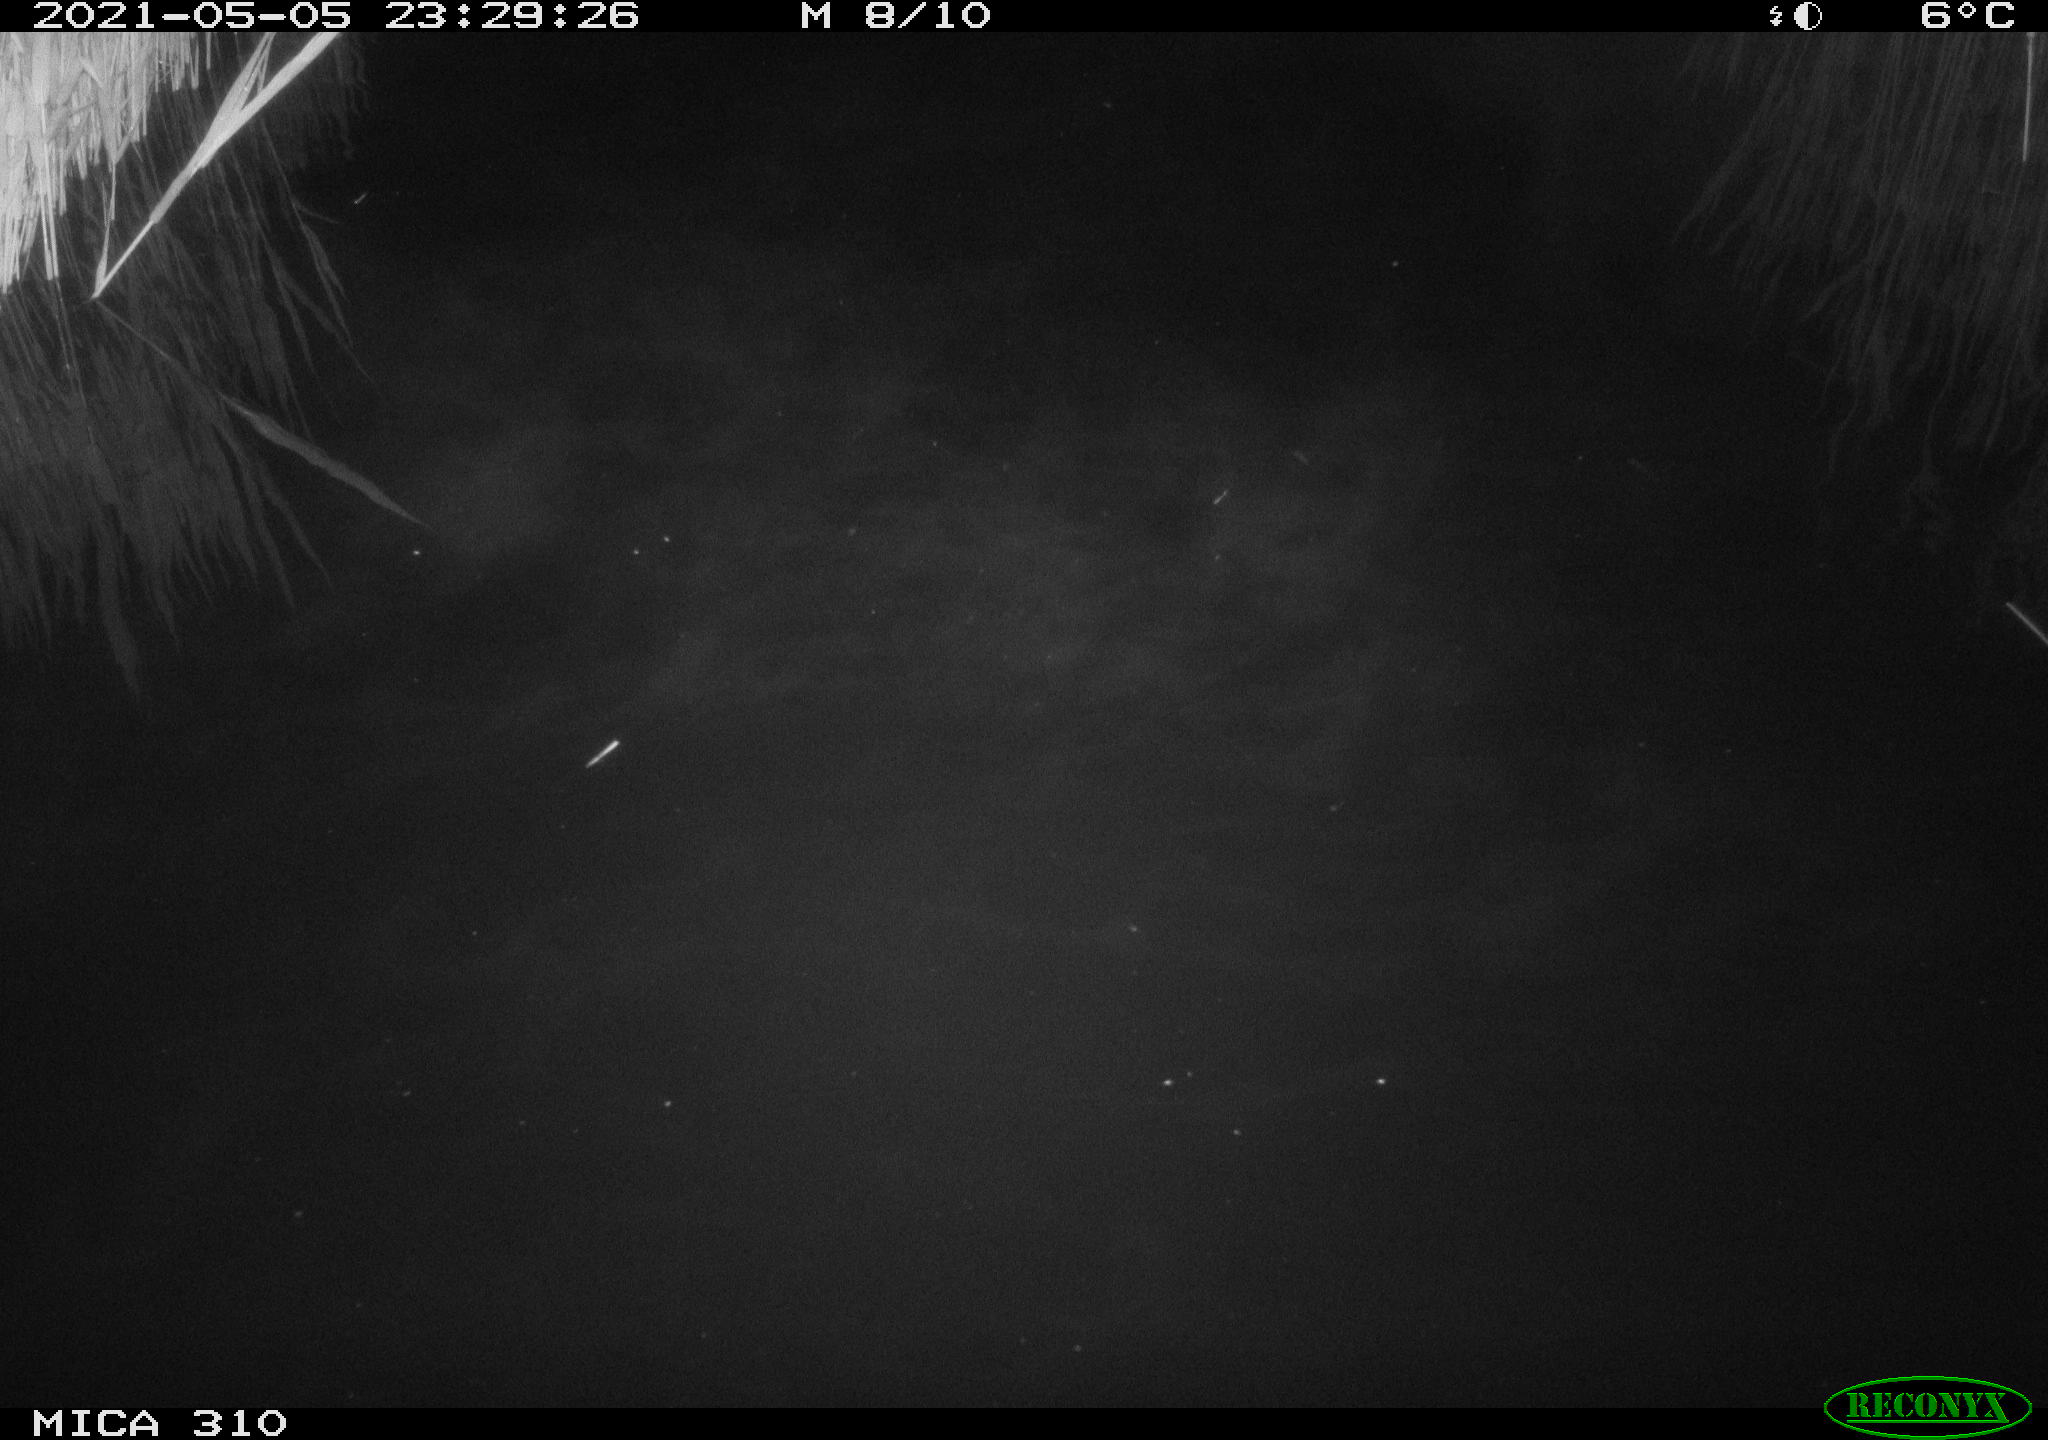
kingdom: Animalia
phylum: Chordata
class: Mammalia
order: Rodentia
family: Muridae
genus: Rattus
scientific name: Rattus norvegicus
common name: Brown rat
